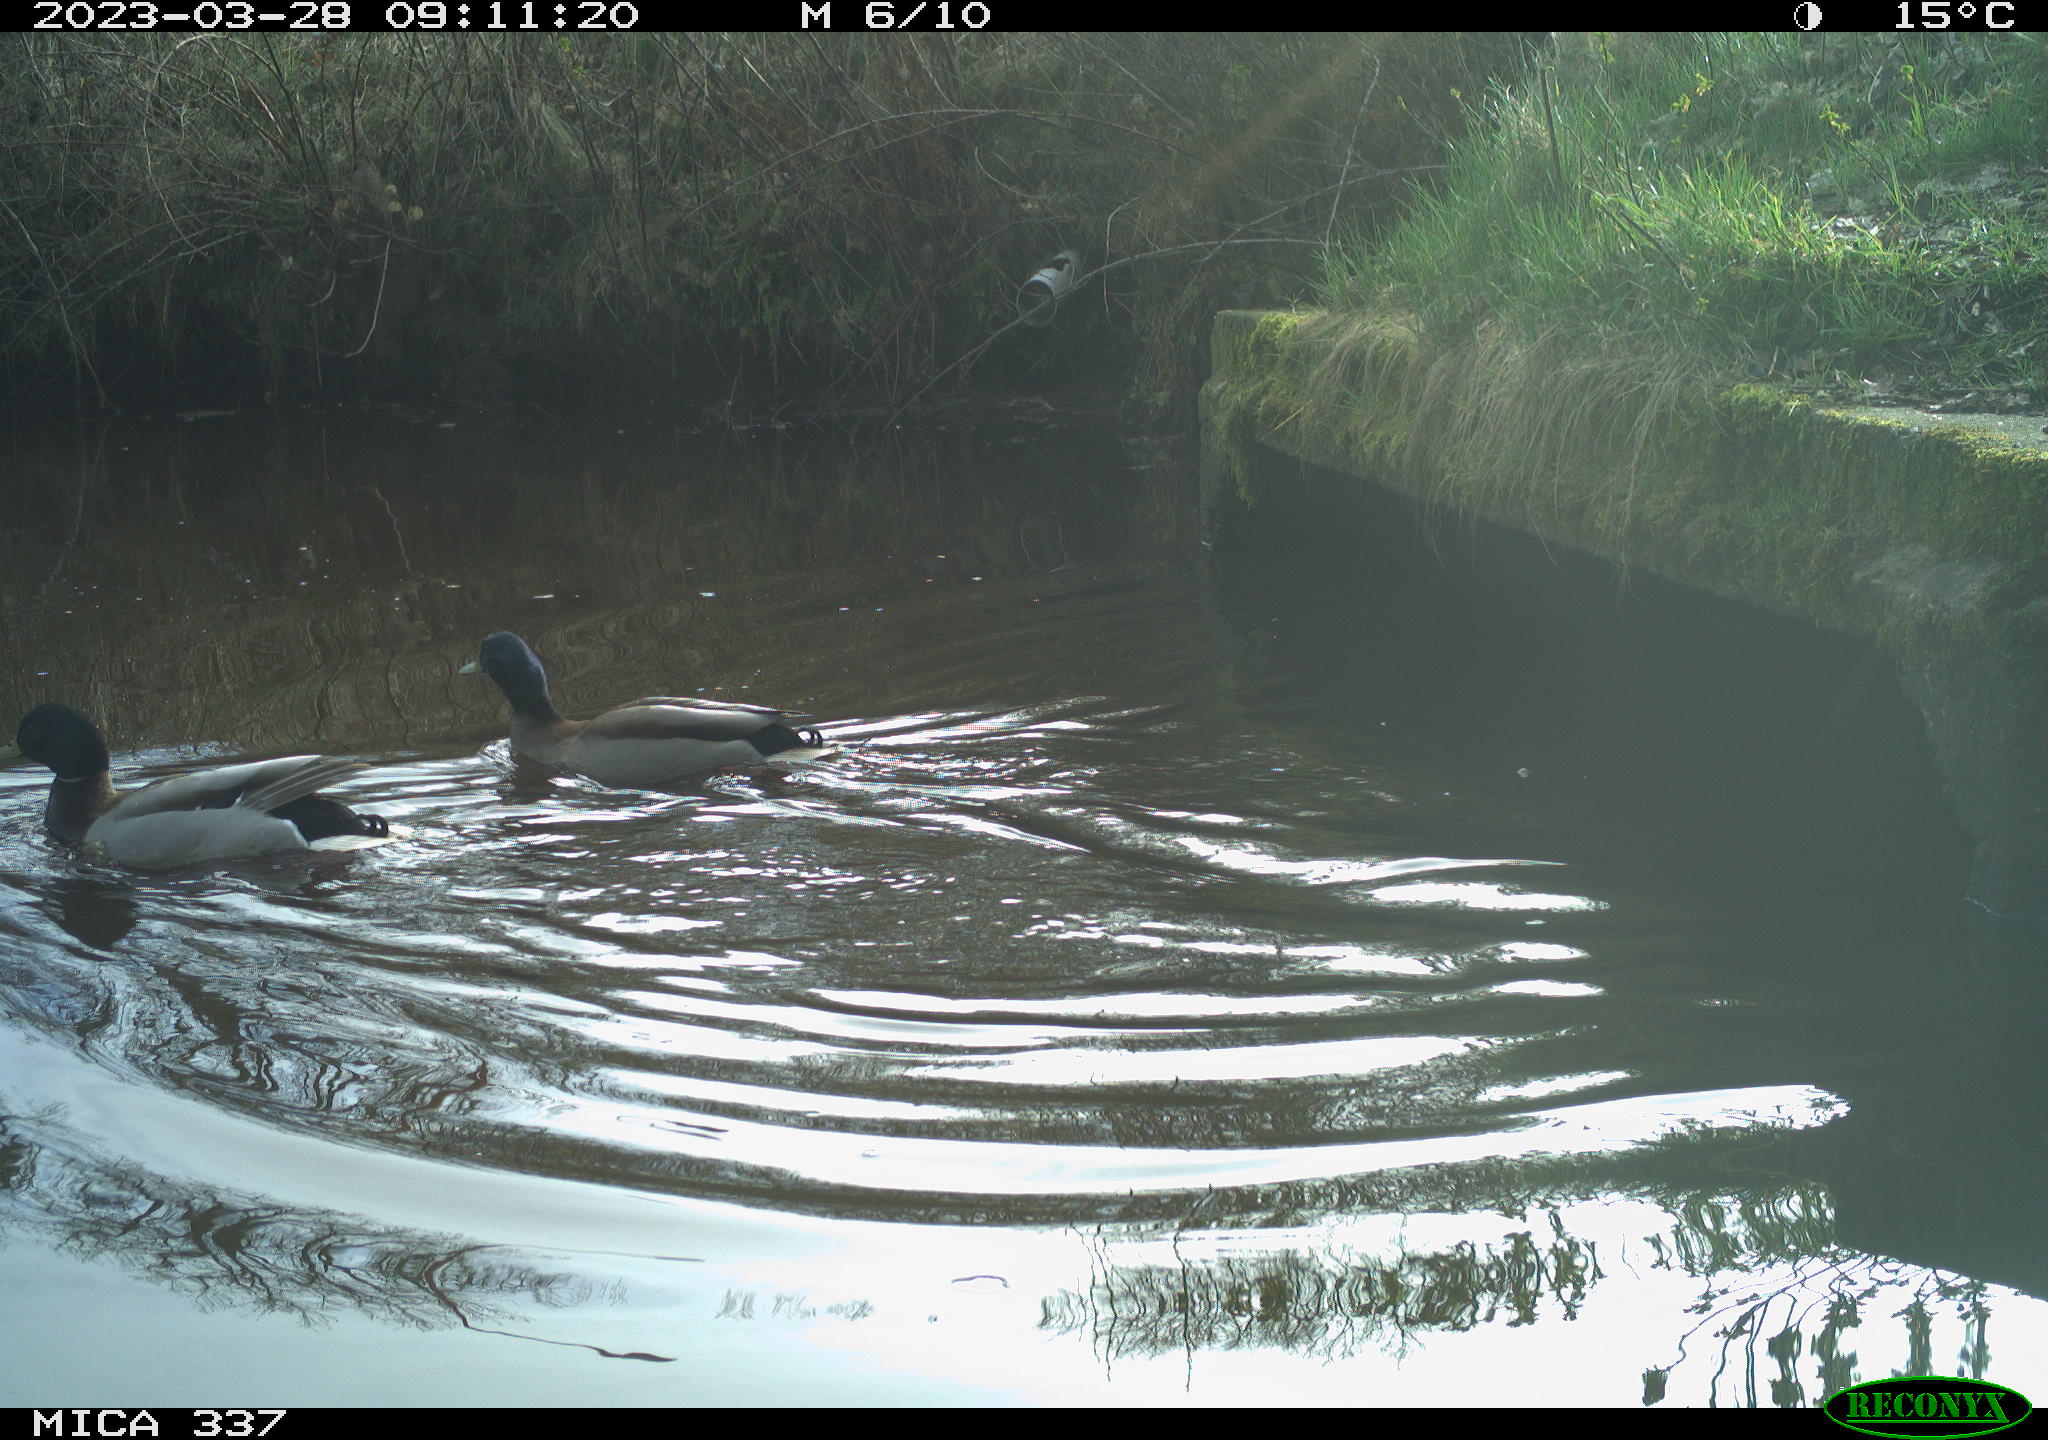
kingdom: Animalia
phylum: Chordata
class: Aves
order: Anseriformes
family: Anatidae
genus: Anas
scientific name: Anas platyrhynchos
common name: Mallard
